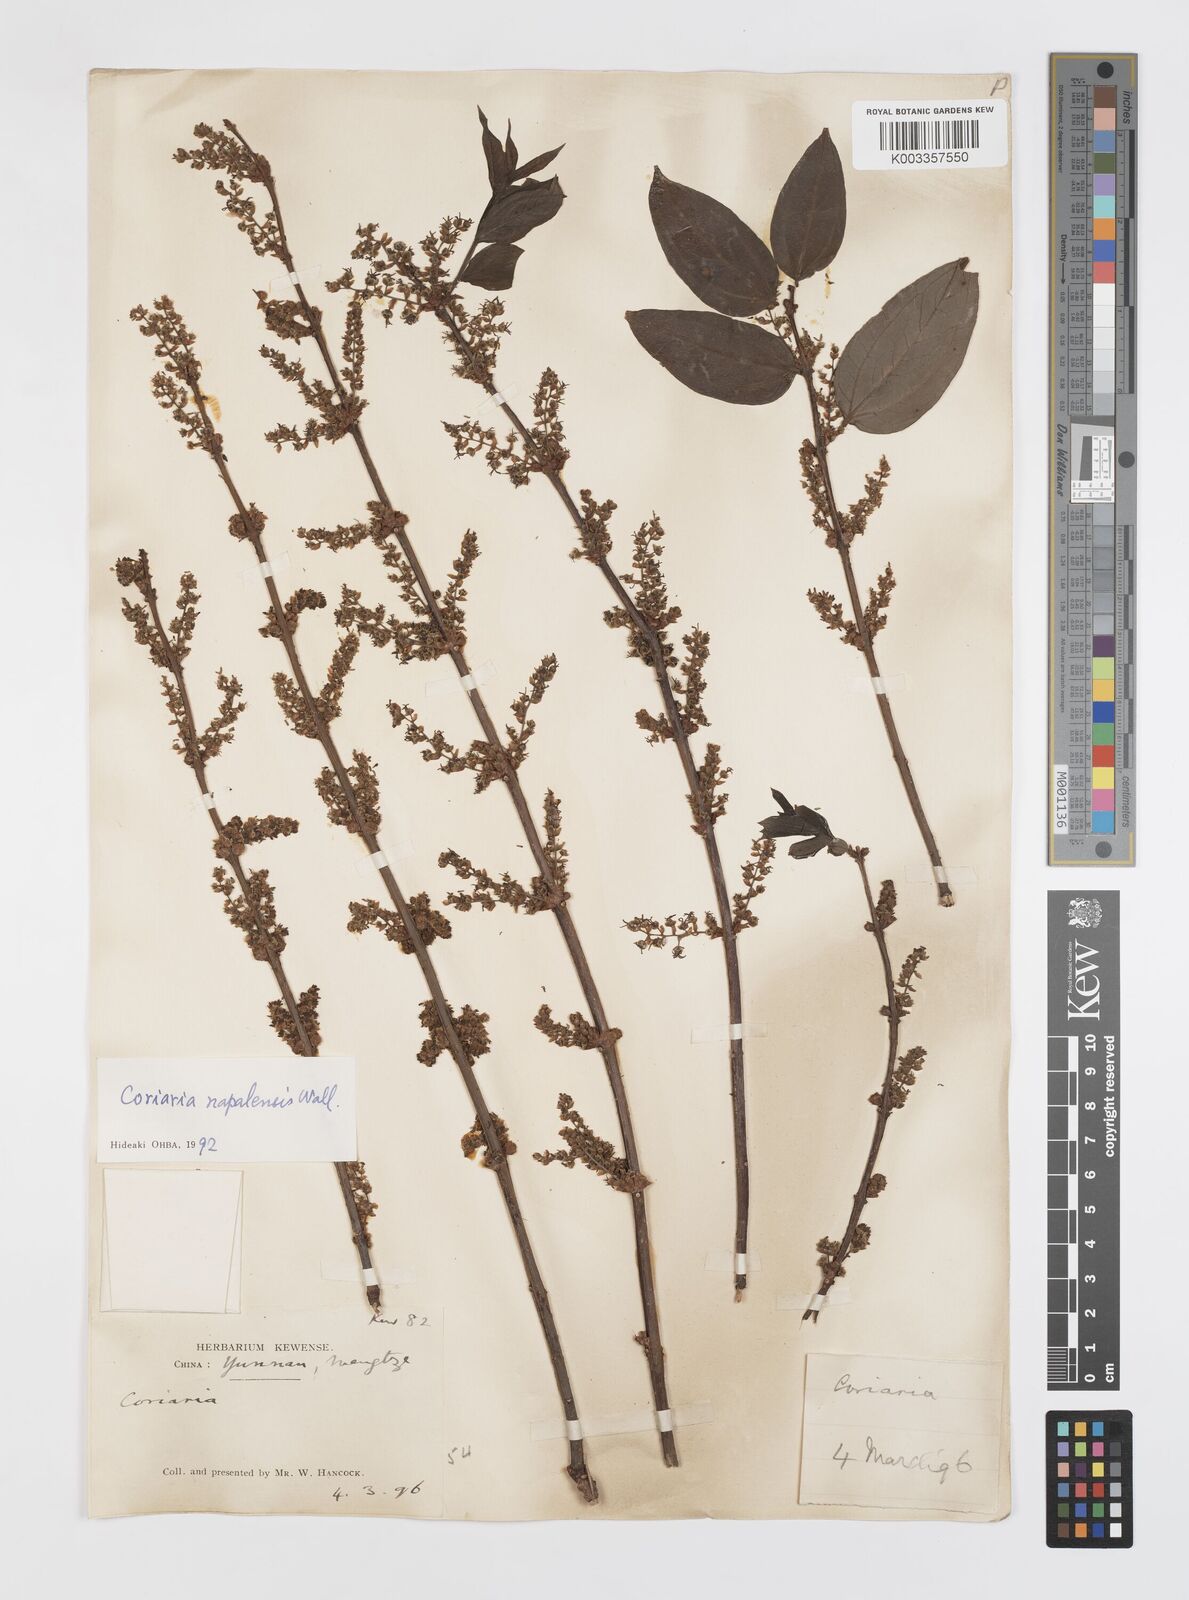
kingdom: Plantae
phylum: Tracheophyta
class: Magnoliopsida
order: Cucurbitales
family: Coriariaceae
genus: Coriaria
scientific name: Coriaria napalensis
